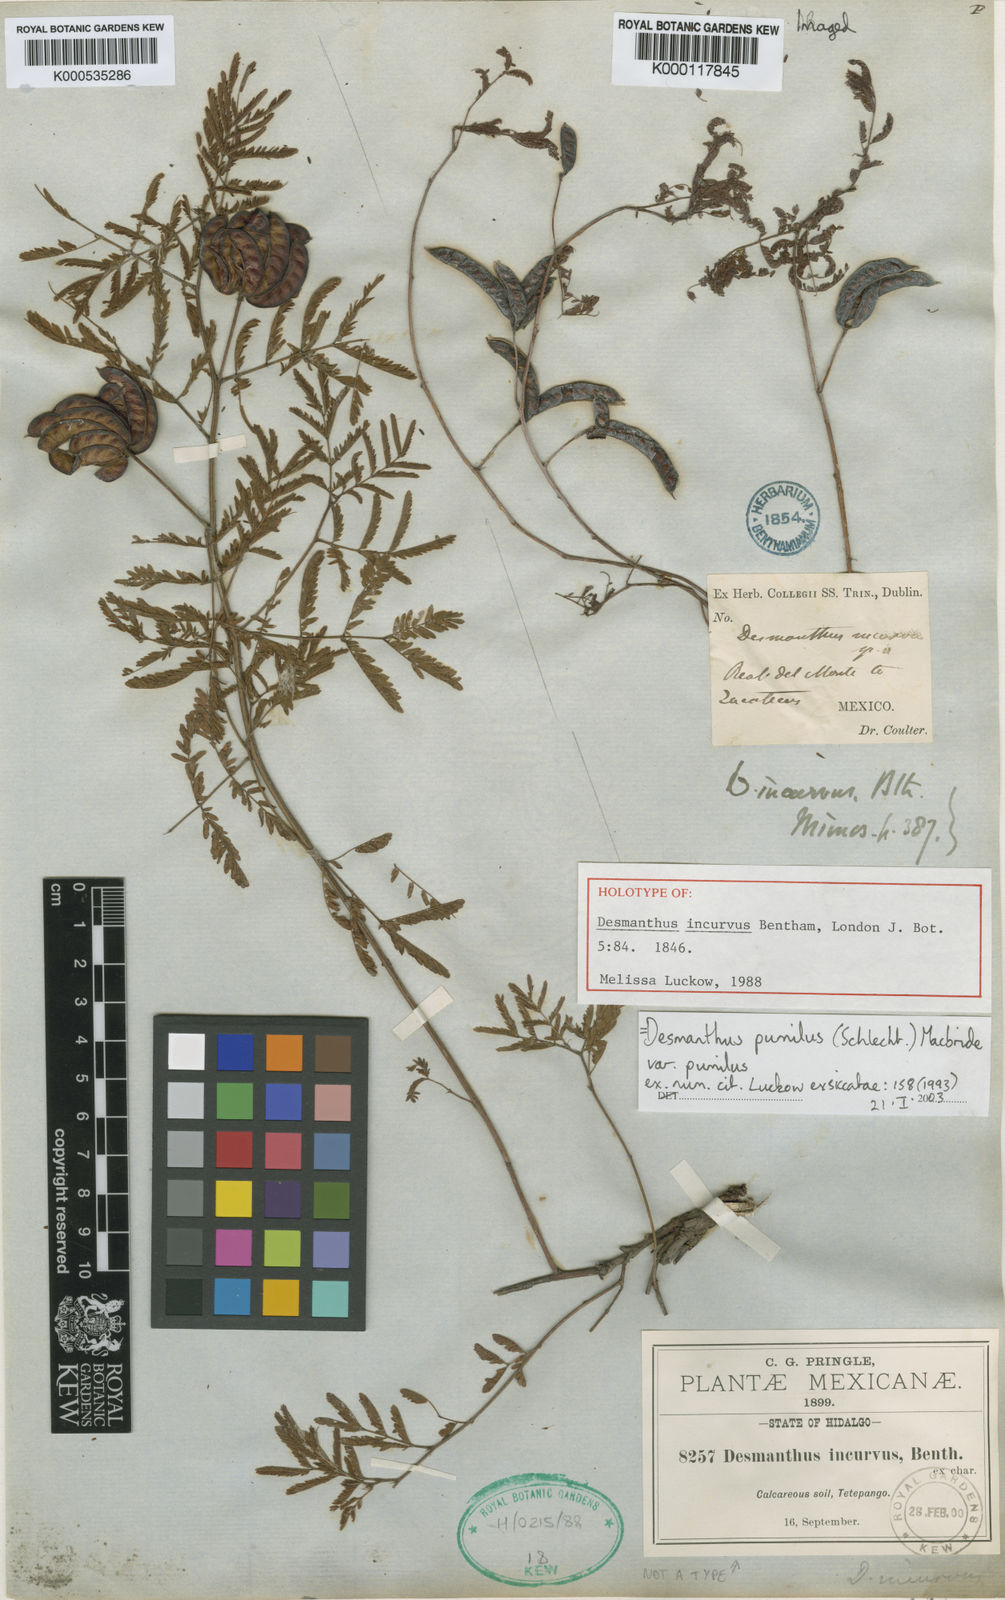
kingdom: Plantae
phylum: Tracheophyta
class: Magnoliopsida
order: Fabales
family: Fabaceae
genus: Desmanthus
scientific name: Desmanthus pumilus
